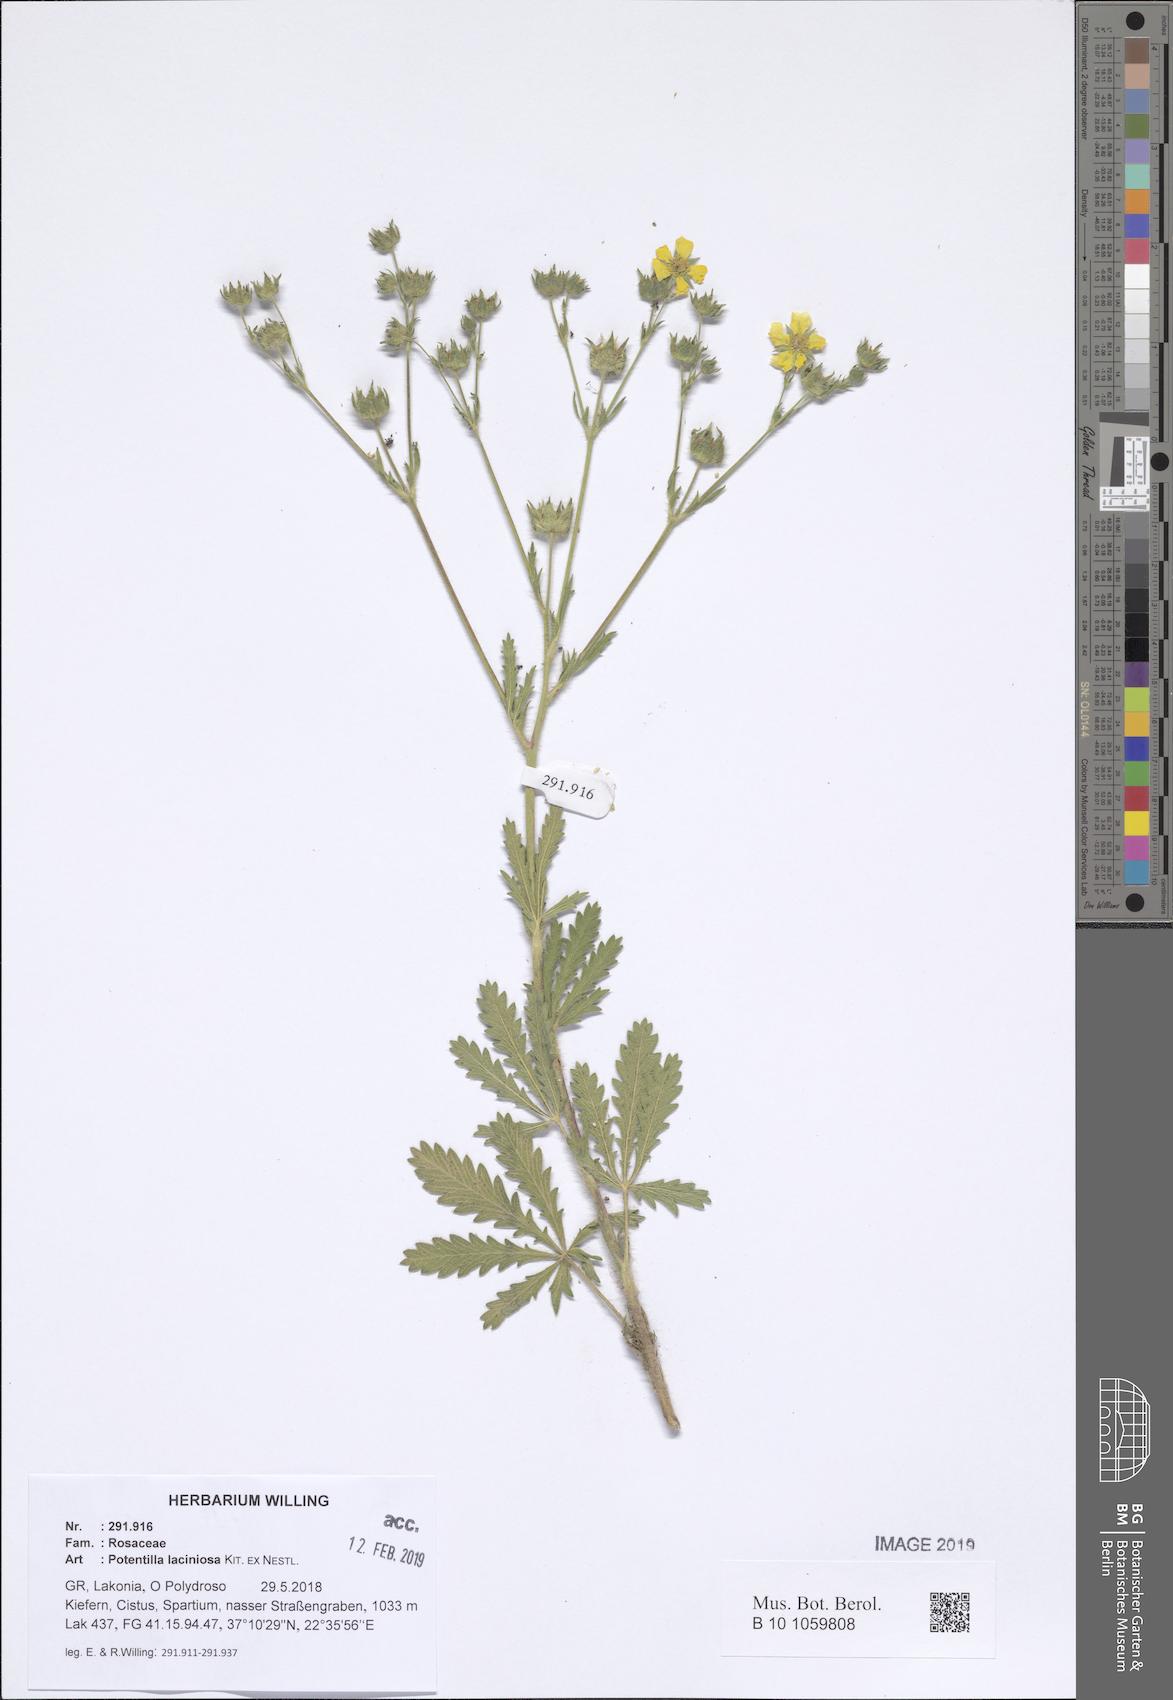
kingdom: Plantae
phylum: Tracheophyta
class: Magnoliopsida
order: Rosales
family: Rosaceae
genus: Potentilla
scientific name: Potentilla recta
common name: Sulphur cinquefoil
